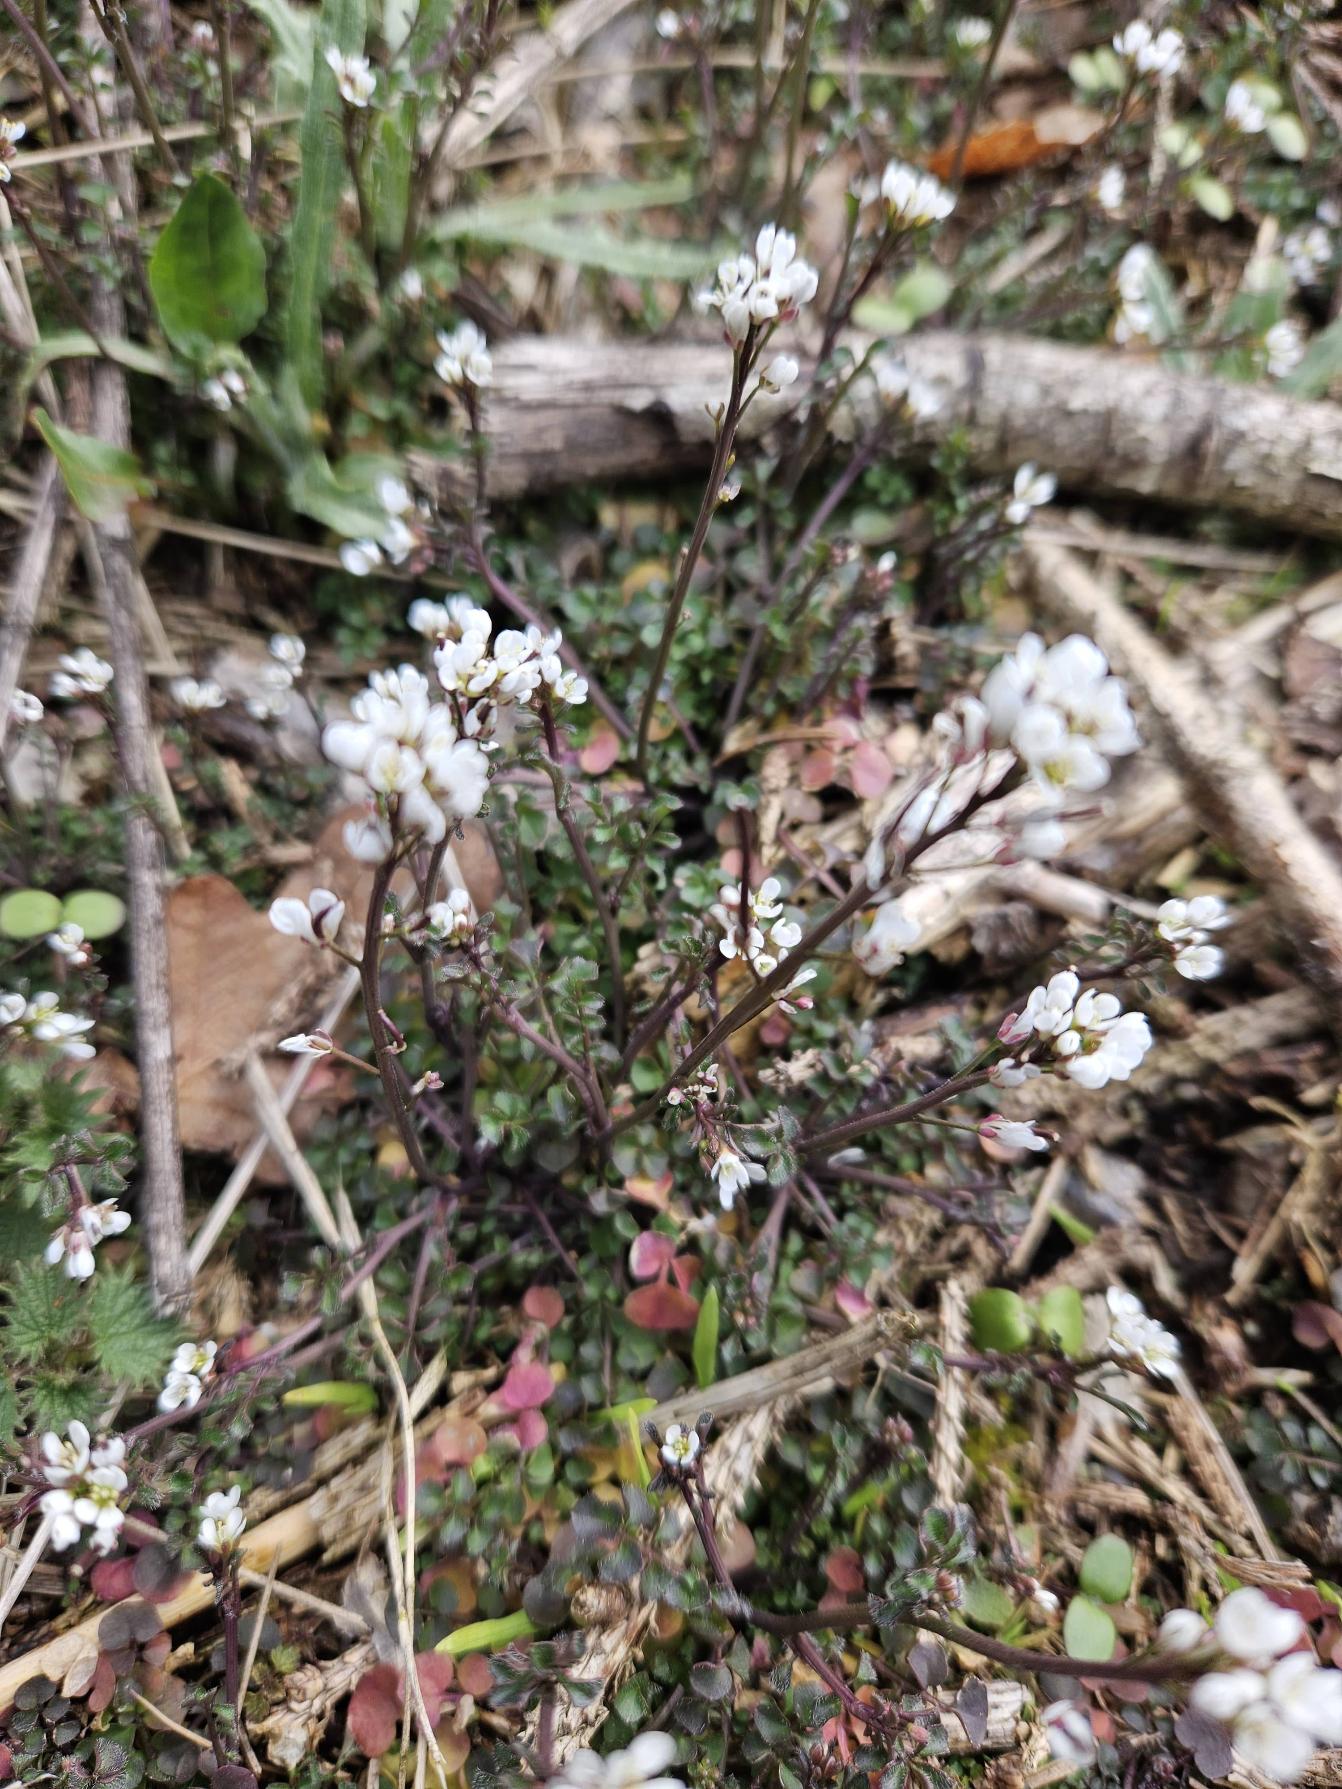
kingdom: Plantae
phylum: Tracheophyta
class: Magnoliopsida
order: Brassicales
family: Brassicaceae
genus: Cardamine
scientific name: Cardamine hirsuta
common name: Roset-springklap
